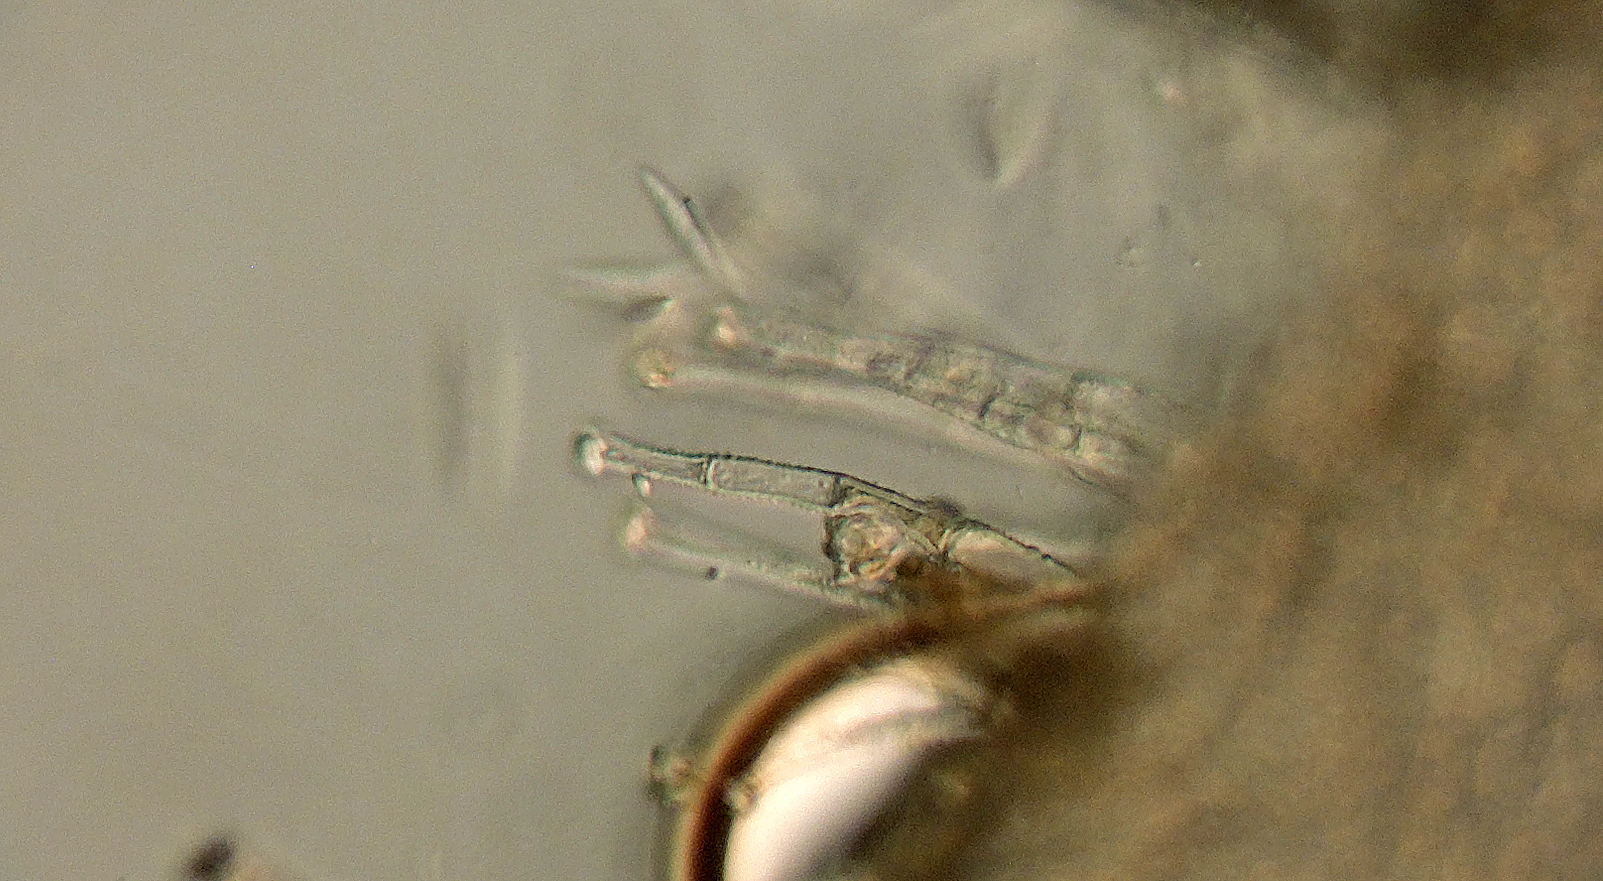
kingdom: Fungi
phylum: Ascomycota
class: Leotiomycetes
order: Helotiales
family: Lachnaceae
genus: Incrucipulum
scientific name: Incrucipulum ciliare
